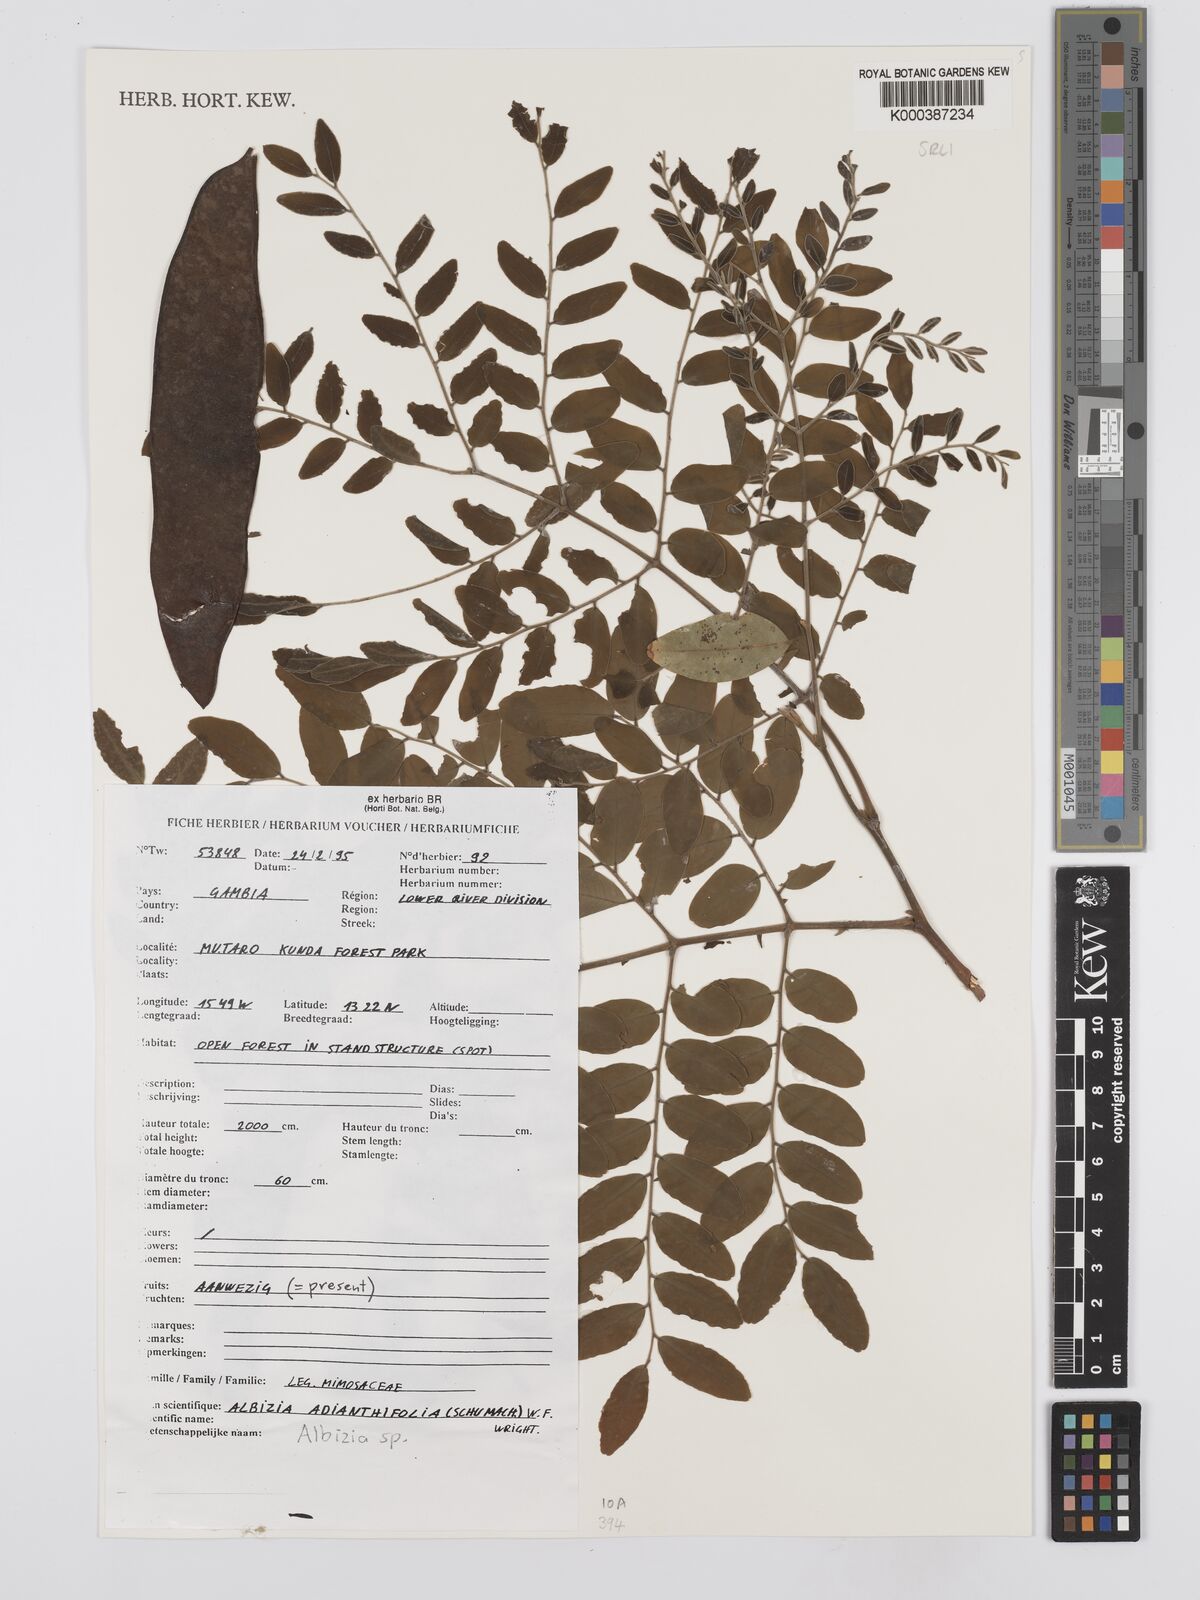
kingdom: Plantae
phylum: Tracheophyta
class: Magnoliopsida
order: Fabales
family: Fabaceae
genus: Albizia
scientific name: Albizia adianthifolia
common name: West african albizia
